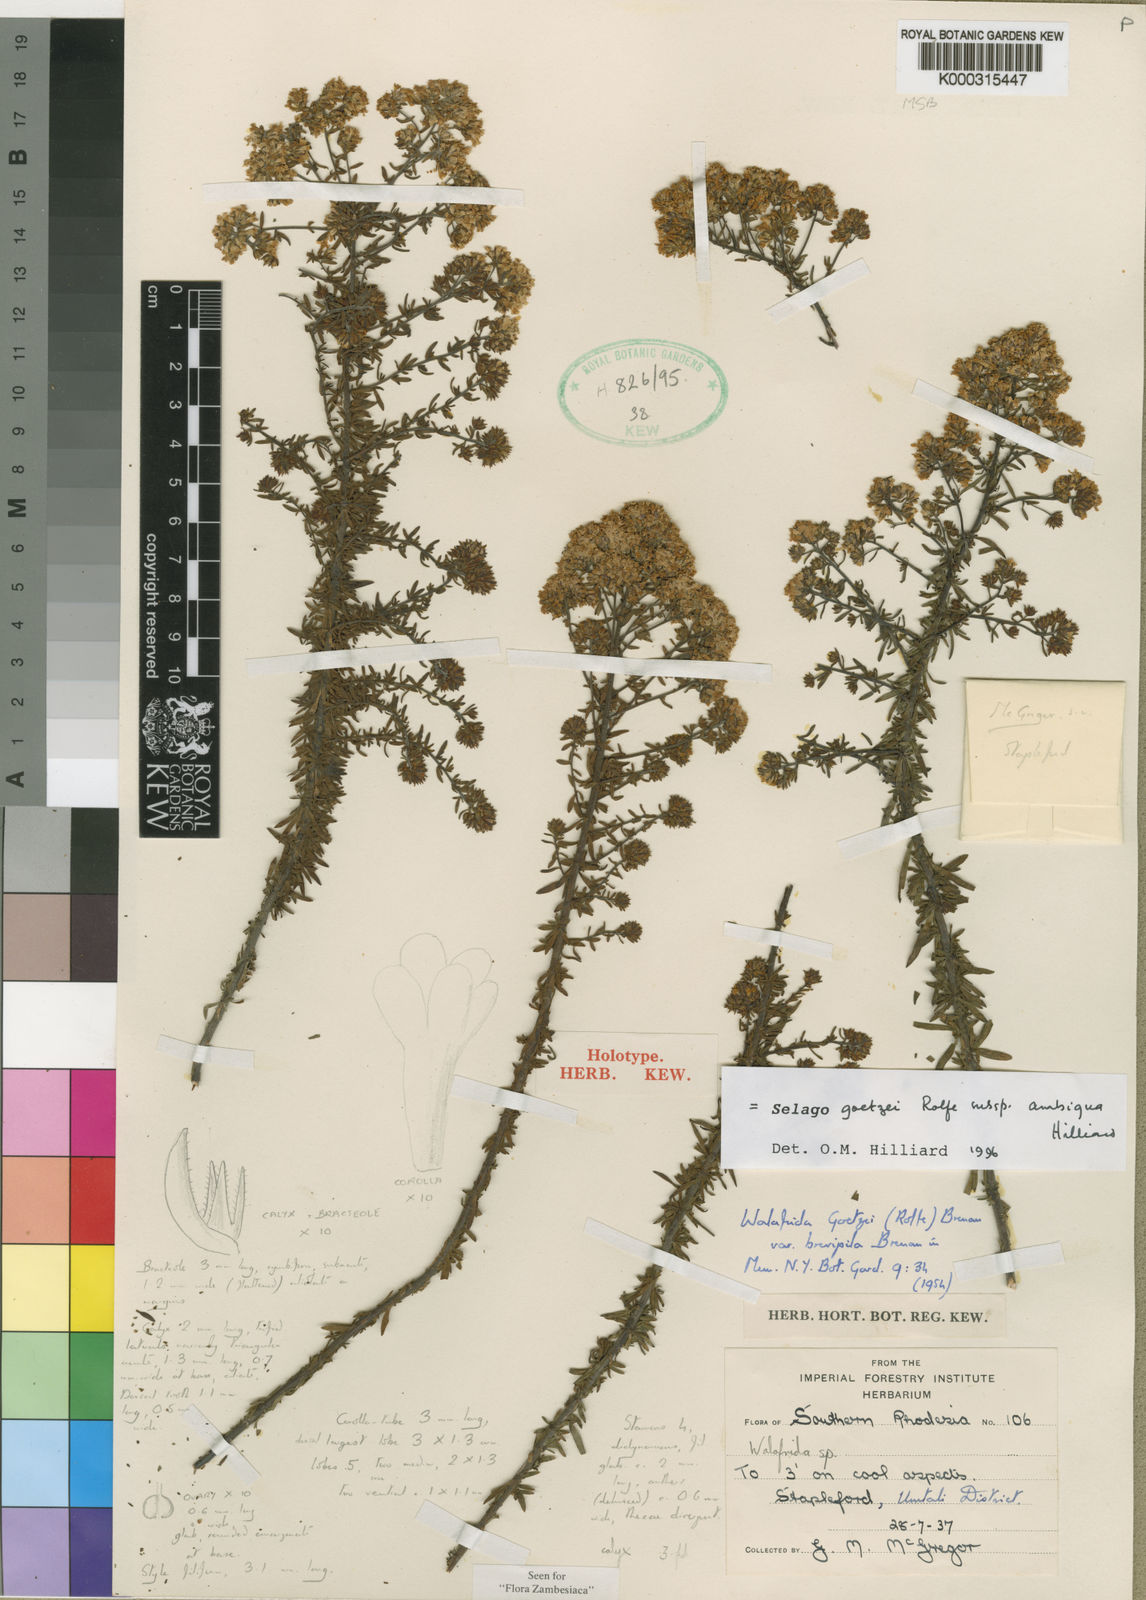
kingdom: Plantae
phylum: Tracheophyta
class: Magnoliopsida
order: Lamiales
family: Scrophulariaceae
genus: Selago
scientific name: Selago goetzei
